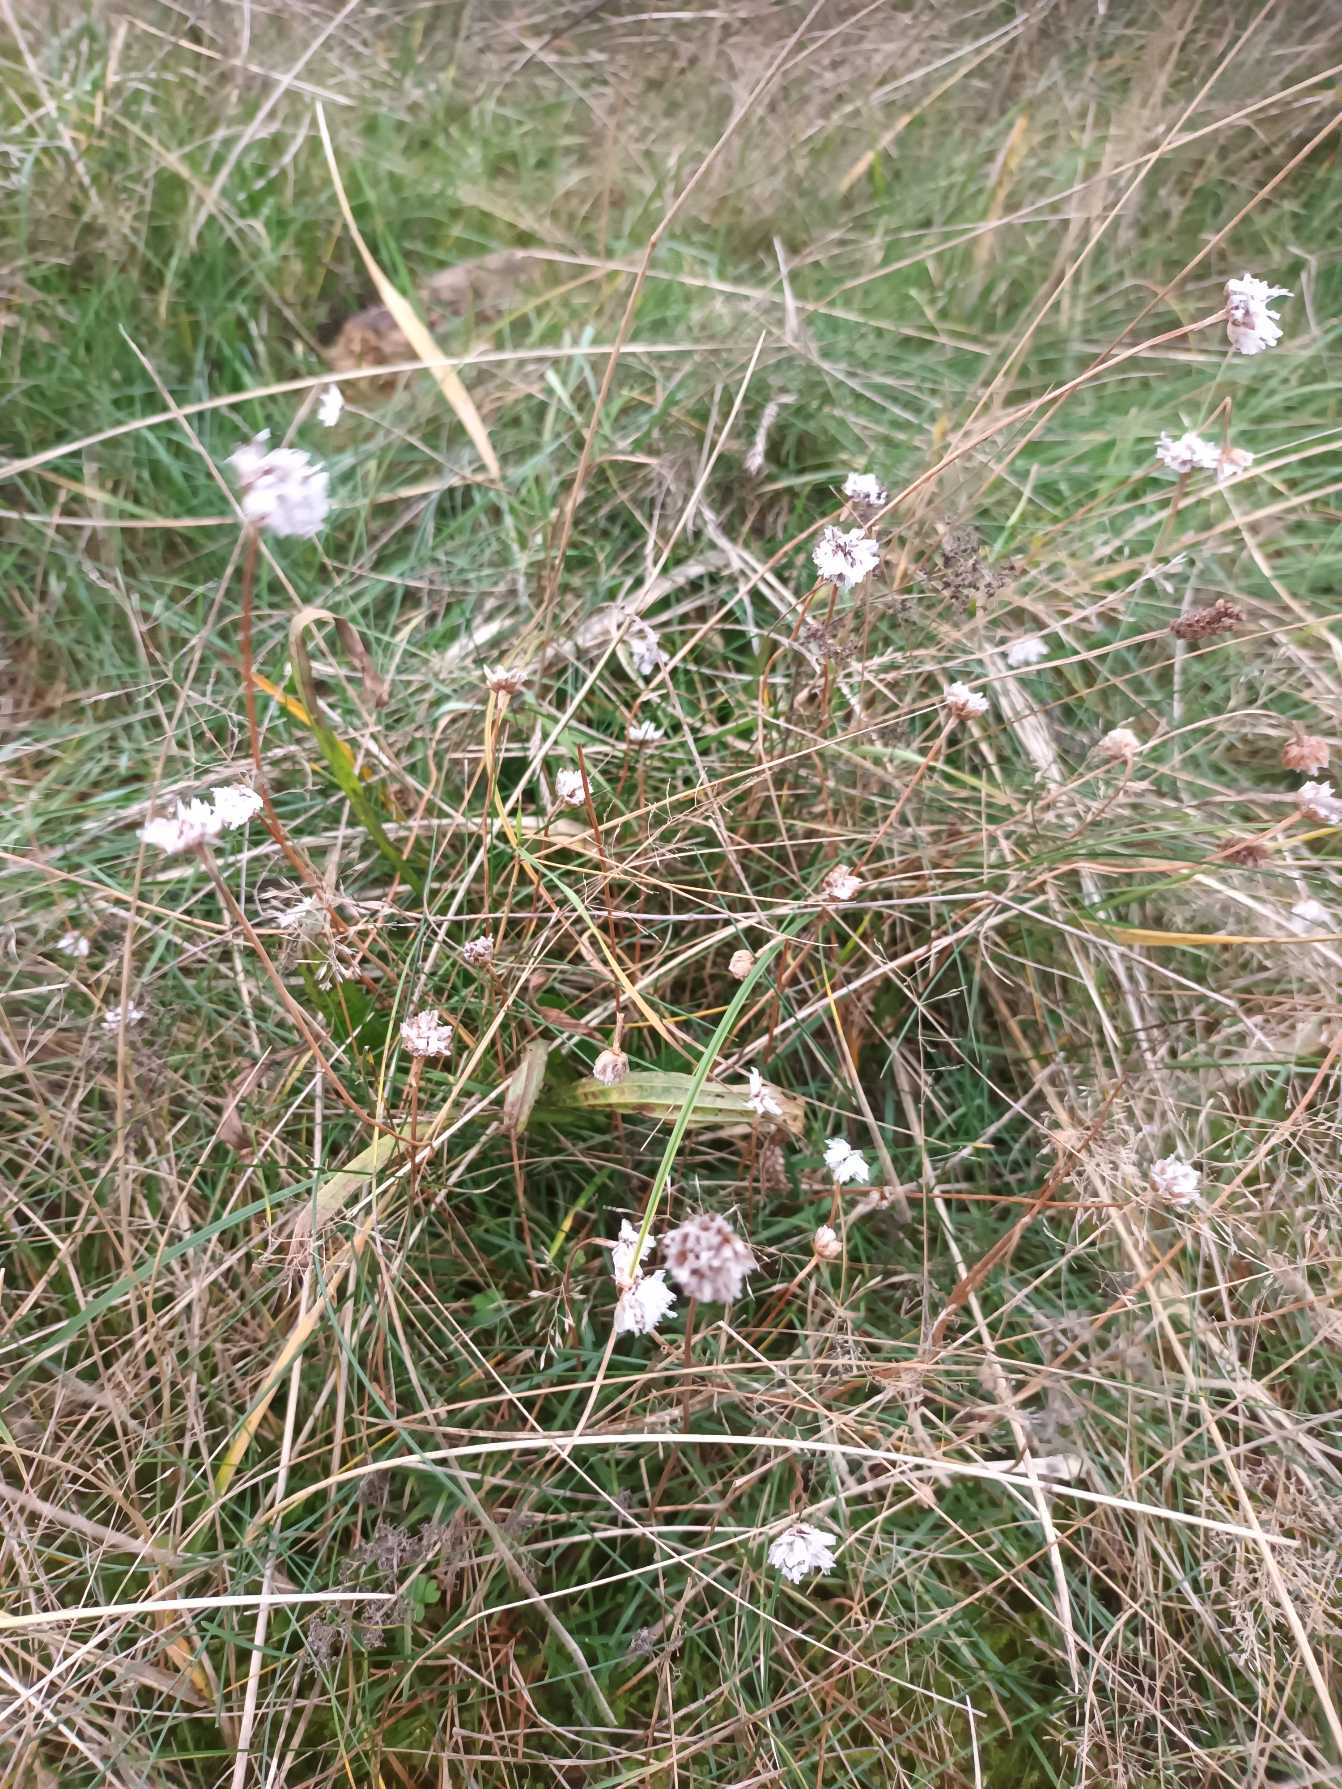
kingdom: Plantae
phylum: Tracheophyta
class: Magnoliopsida
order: Caryophyllales
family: Plumbaginaceae
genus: Armeria
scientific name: Armeria maritima
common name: Engelskgræs
